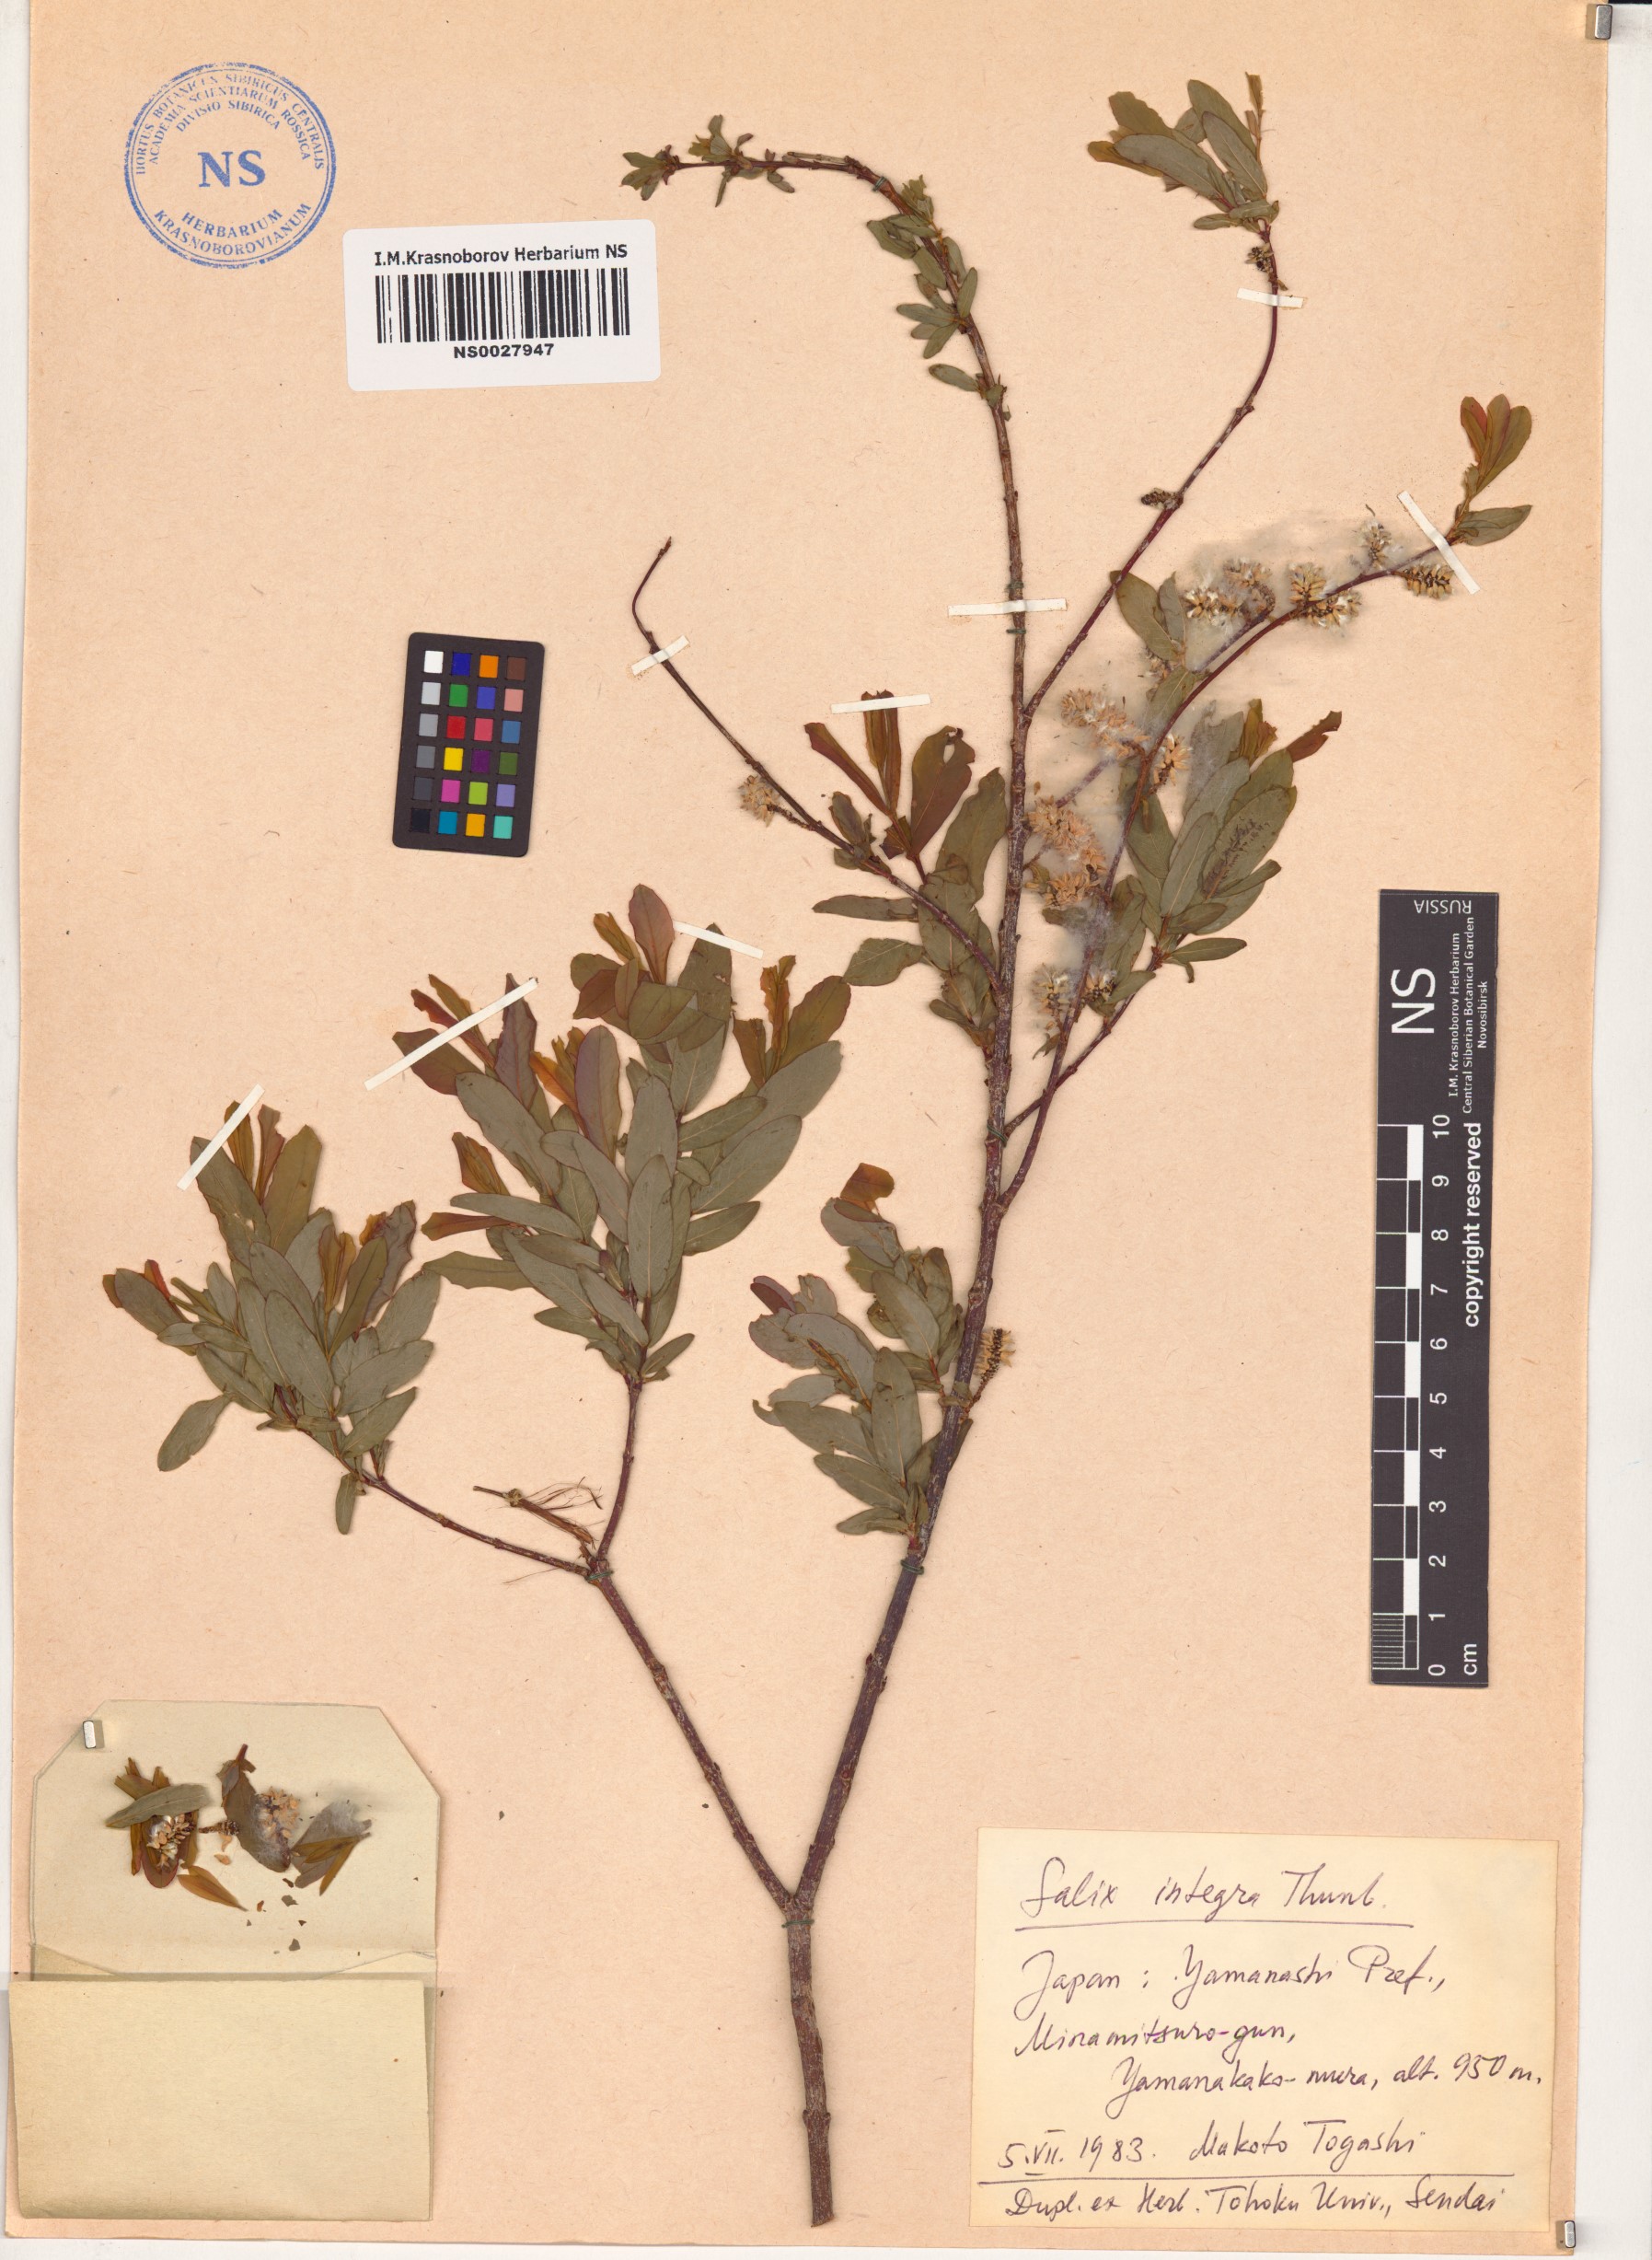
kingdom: Plantae
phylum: Tracheophyta
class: Magnoliopsida
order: Malpighiales
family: Salicaceae
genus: Salix
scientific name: Salix integra
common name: Dappled willow
